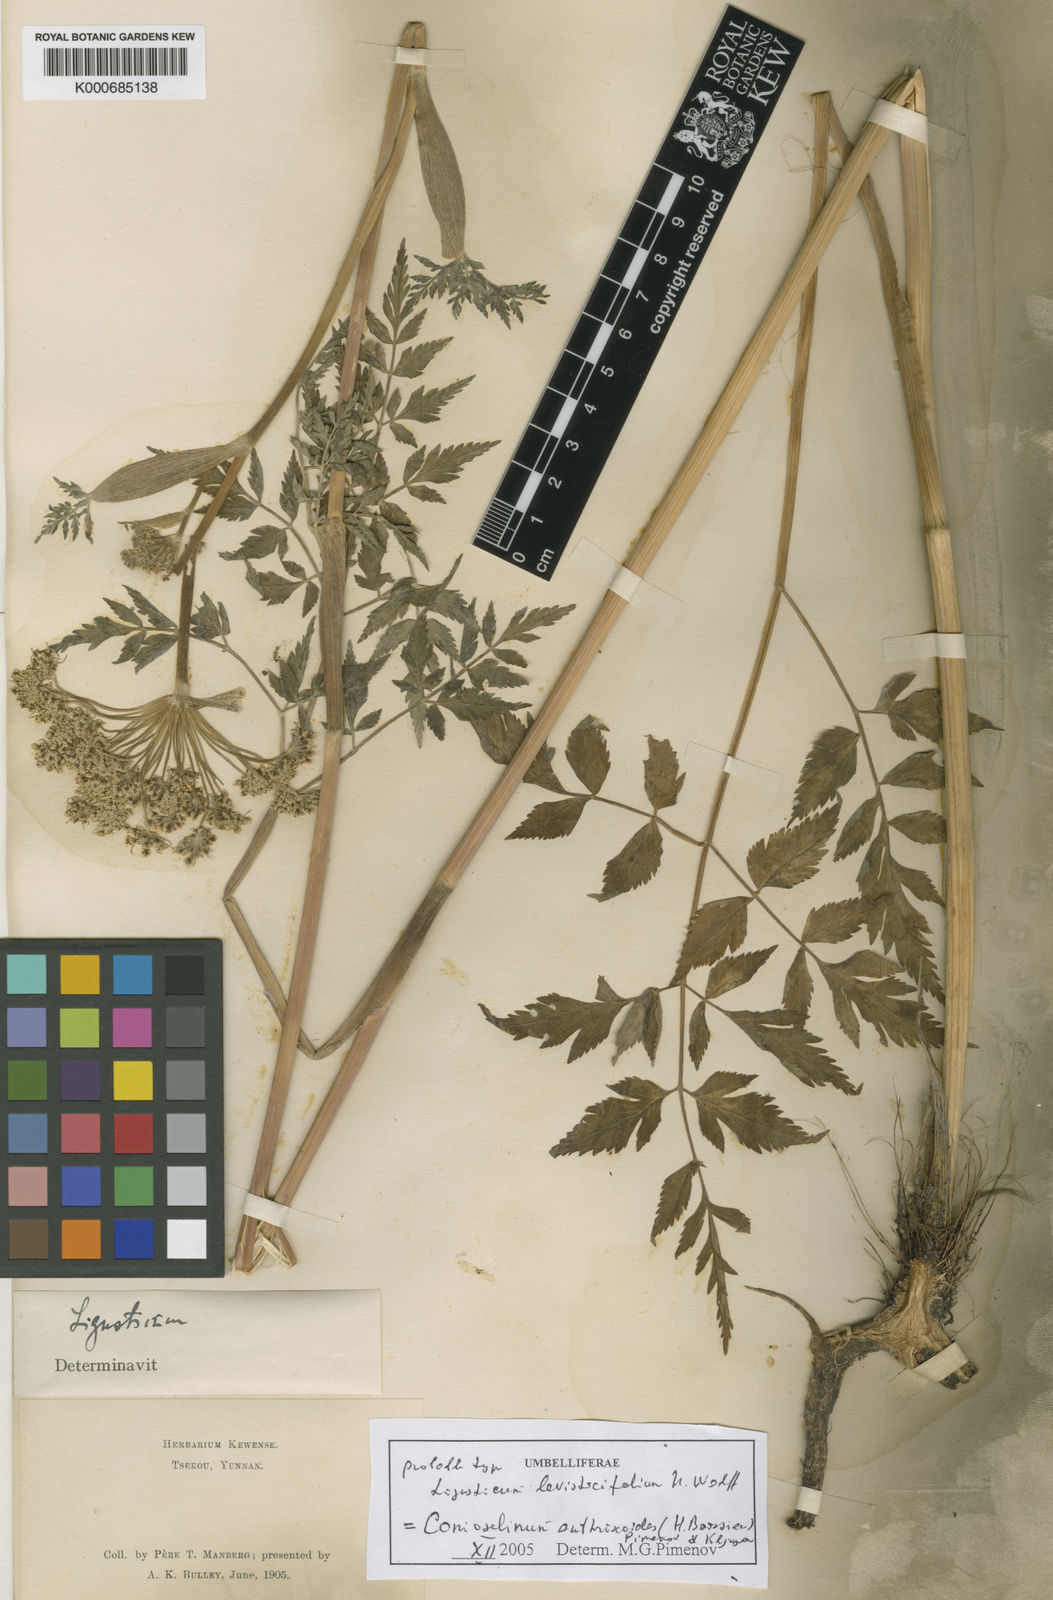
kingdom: Plantae
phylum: Tracheophyta
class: Magnoliopsida
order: Apiales
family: Apiaceae
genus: Conioselinum
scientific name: Conioselinum anthriscoides
